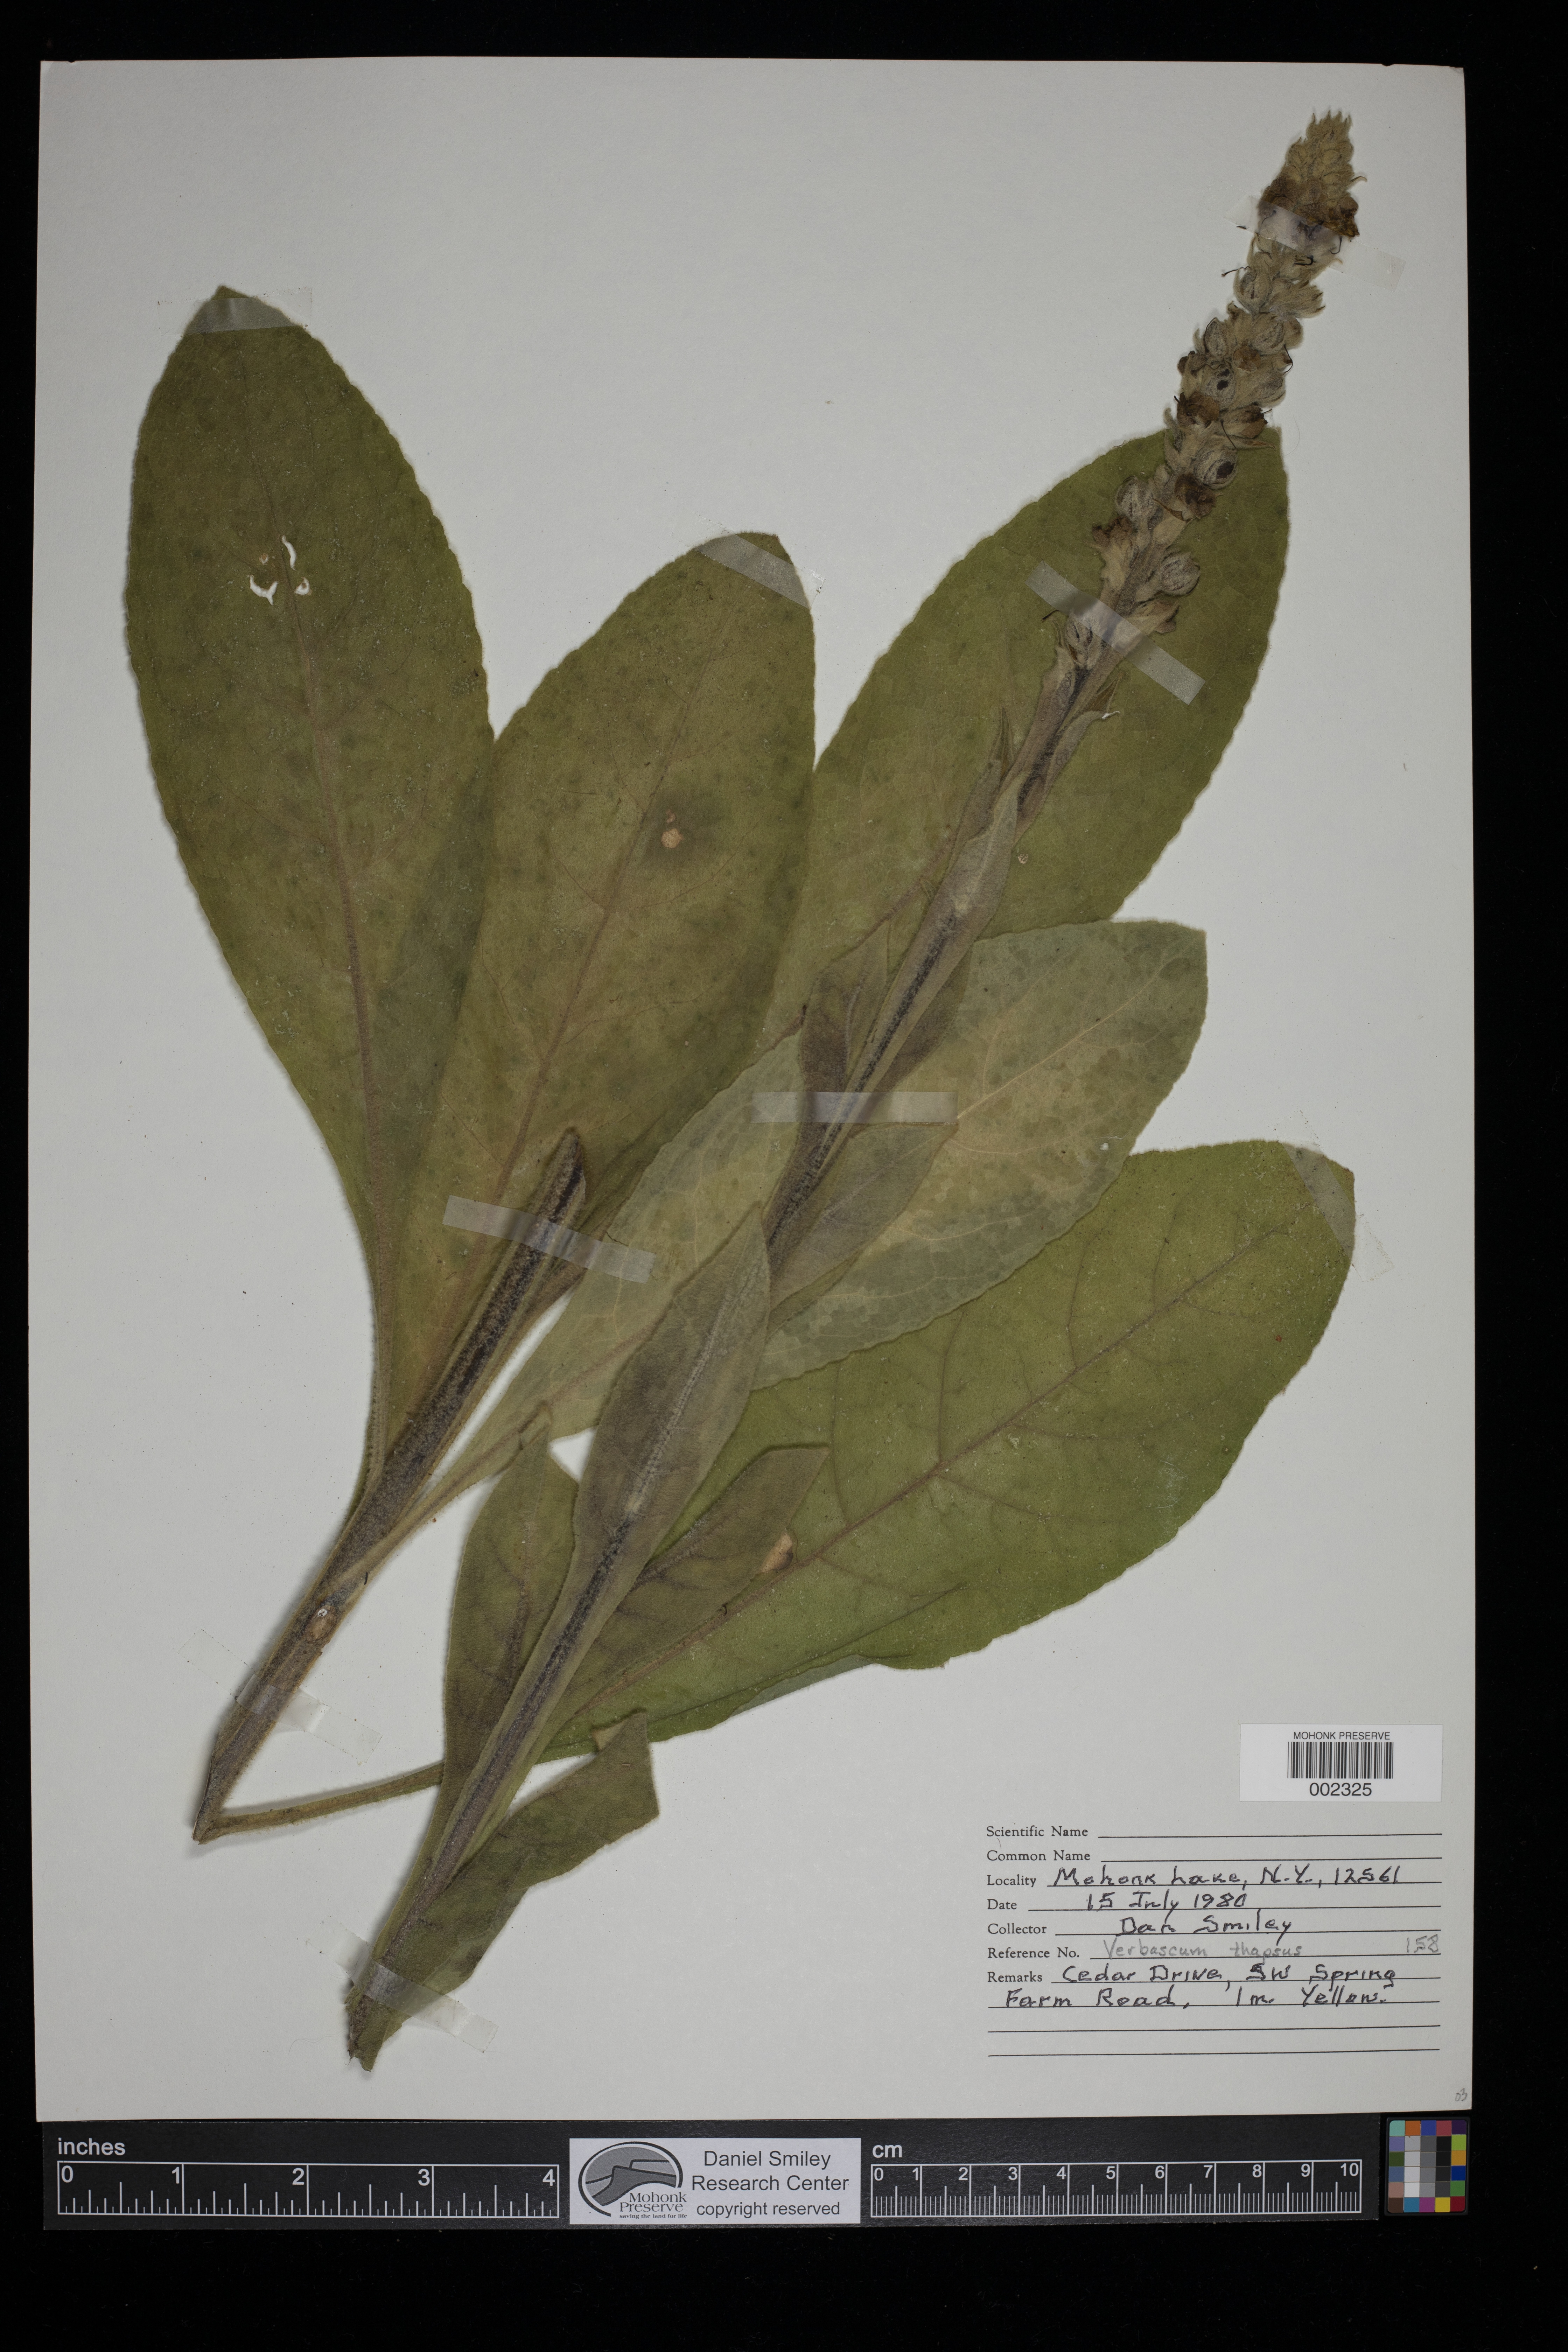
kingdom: Plantae
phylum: Tracheophyta
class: Magnoliopsida
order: Lamiales
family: Scrophulariaceae
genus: Verbascum
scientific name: Verbascum thapsus
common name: Common mullein
